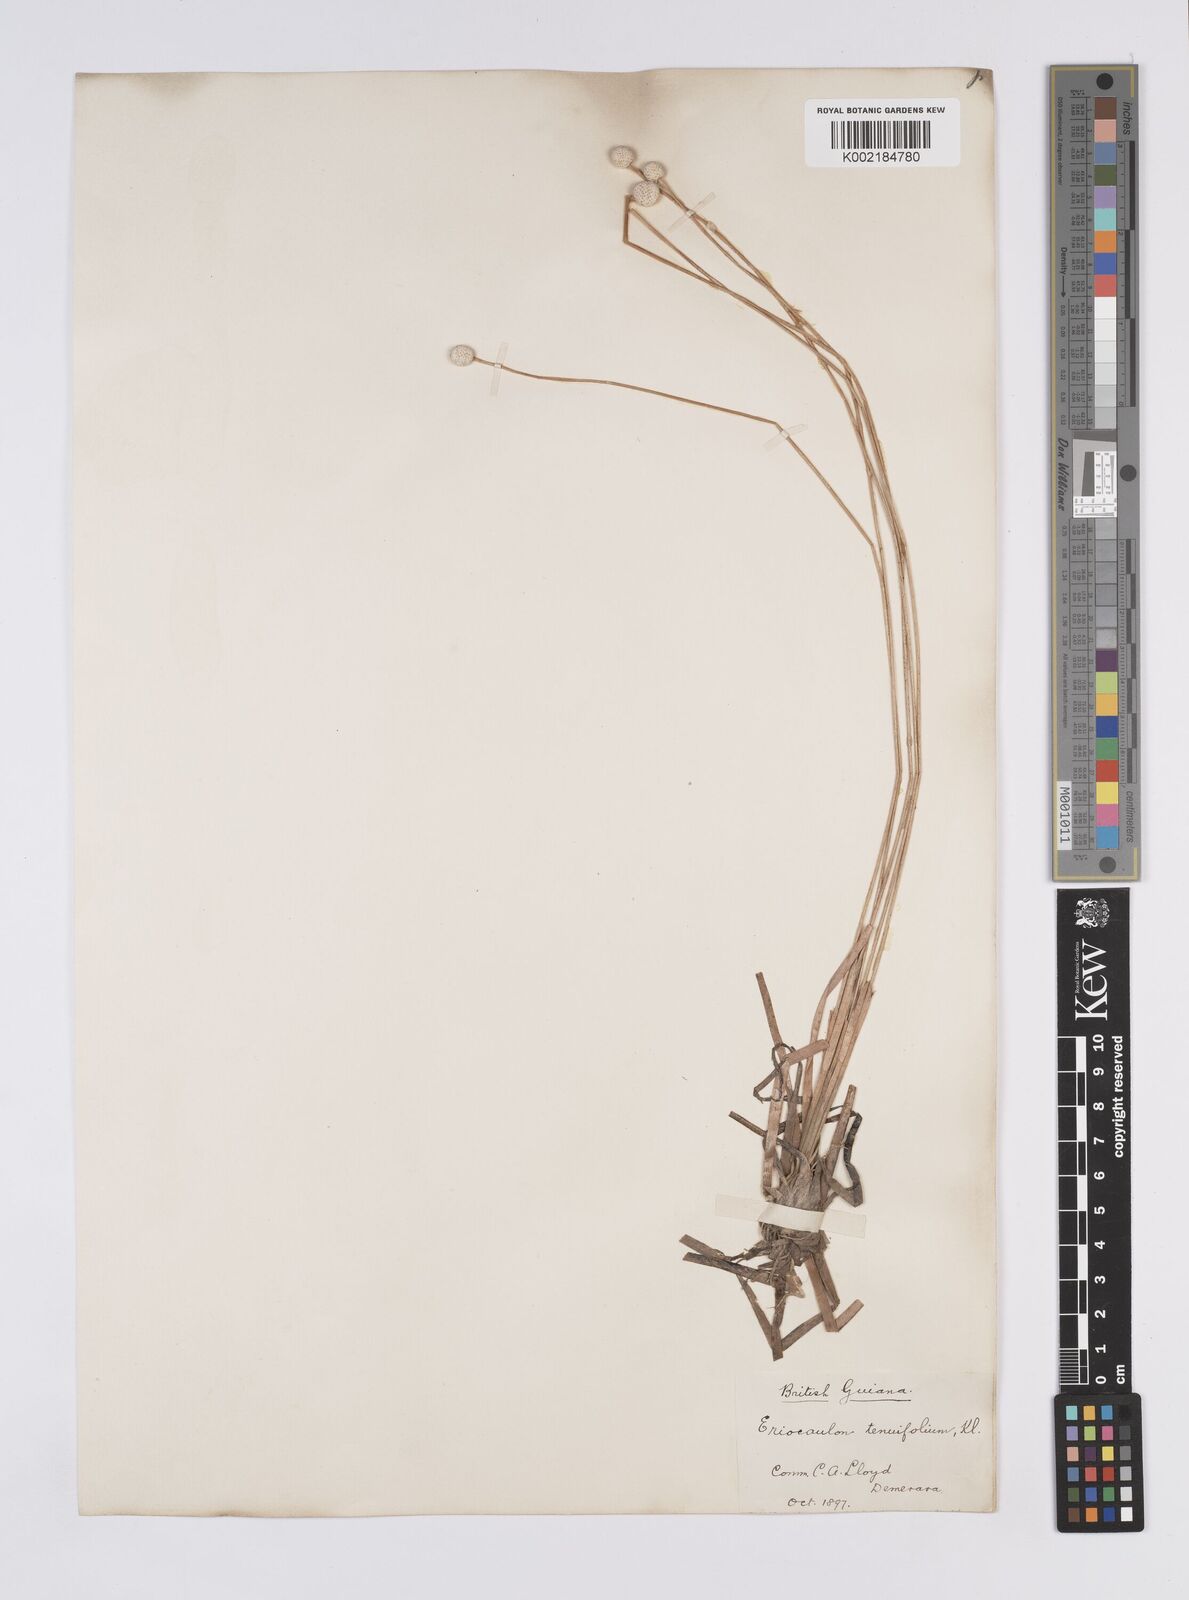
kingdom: Plantae
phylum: Tracheophyta
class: Liliopsida
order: Poales
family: Eriocaulaceae
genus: Eriocaulon
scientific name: Eriocaulon tenuifolium
